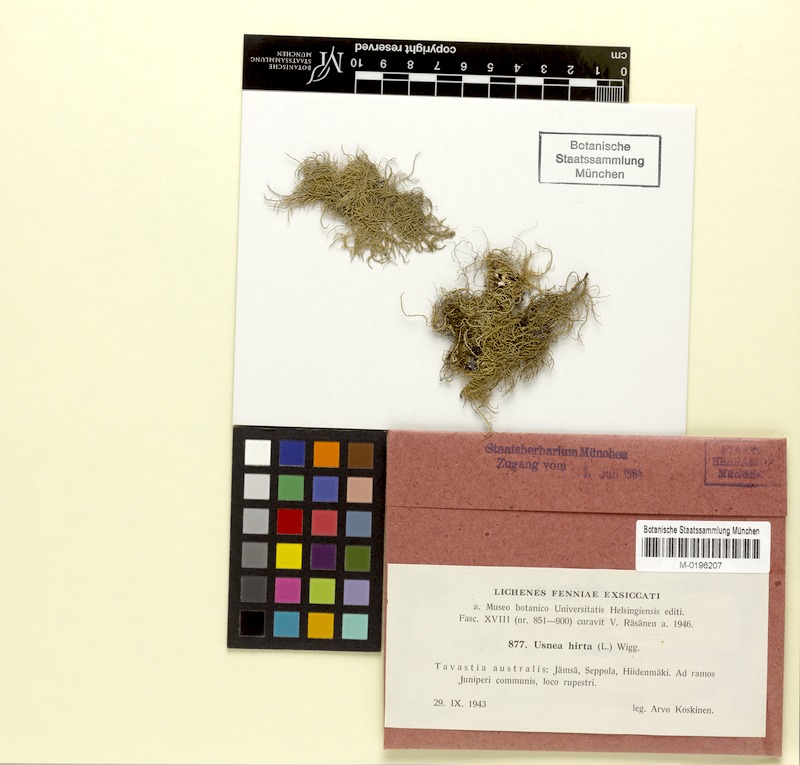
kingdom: Fungi
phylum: Ascomycota
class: Lecanoromycetes
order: Lecanorales
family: Parmeliaceae
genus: Usnea
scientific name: Usnea hirta
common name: Bristly beard lichen
